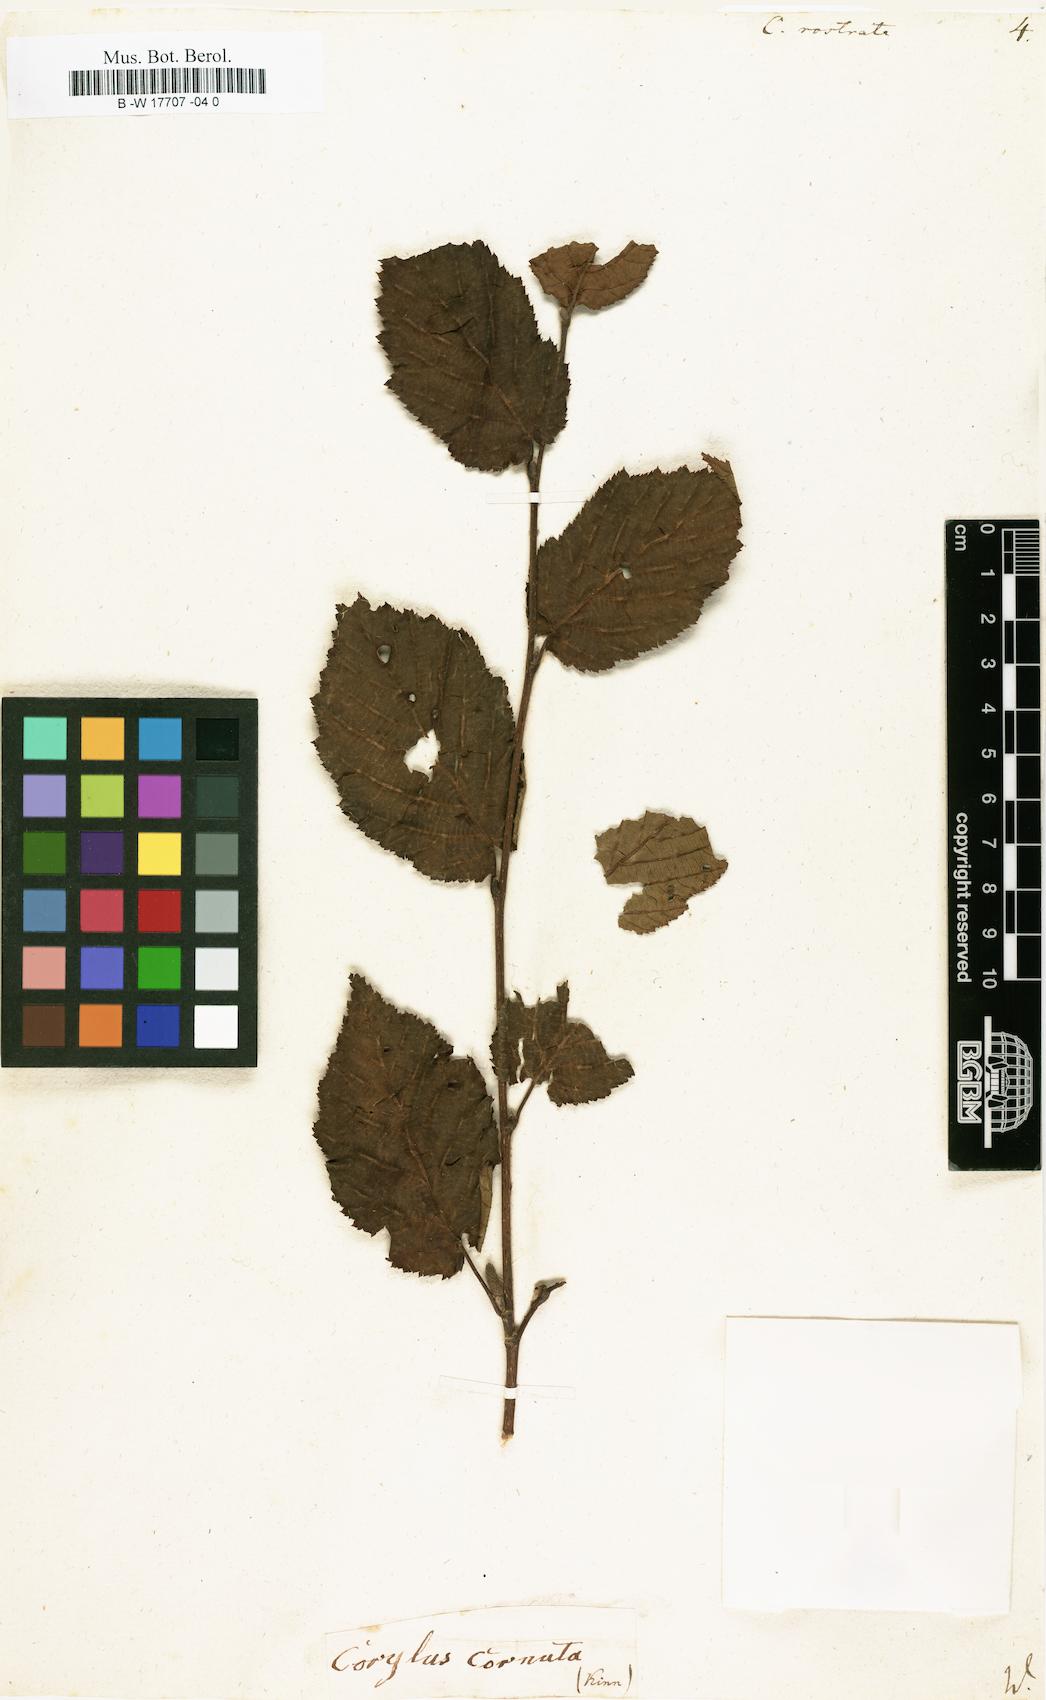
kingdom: Plantae
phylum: Tracheophyta
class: Magnoliopsida
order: Fagales
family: Betulaceae
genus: Corylus
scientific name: Corylus cornuta
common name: Beaked hazel
